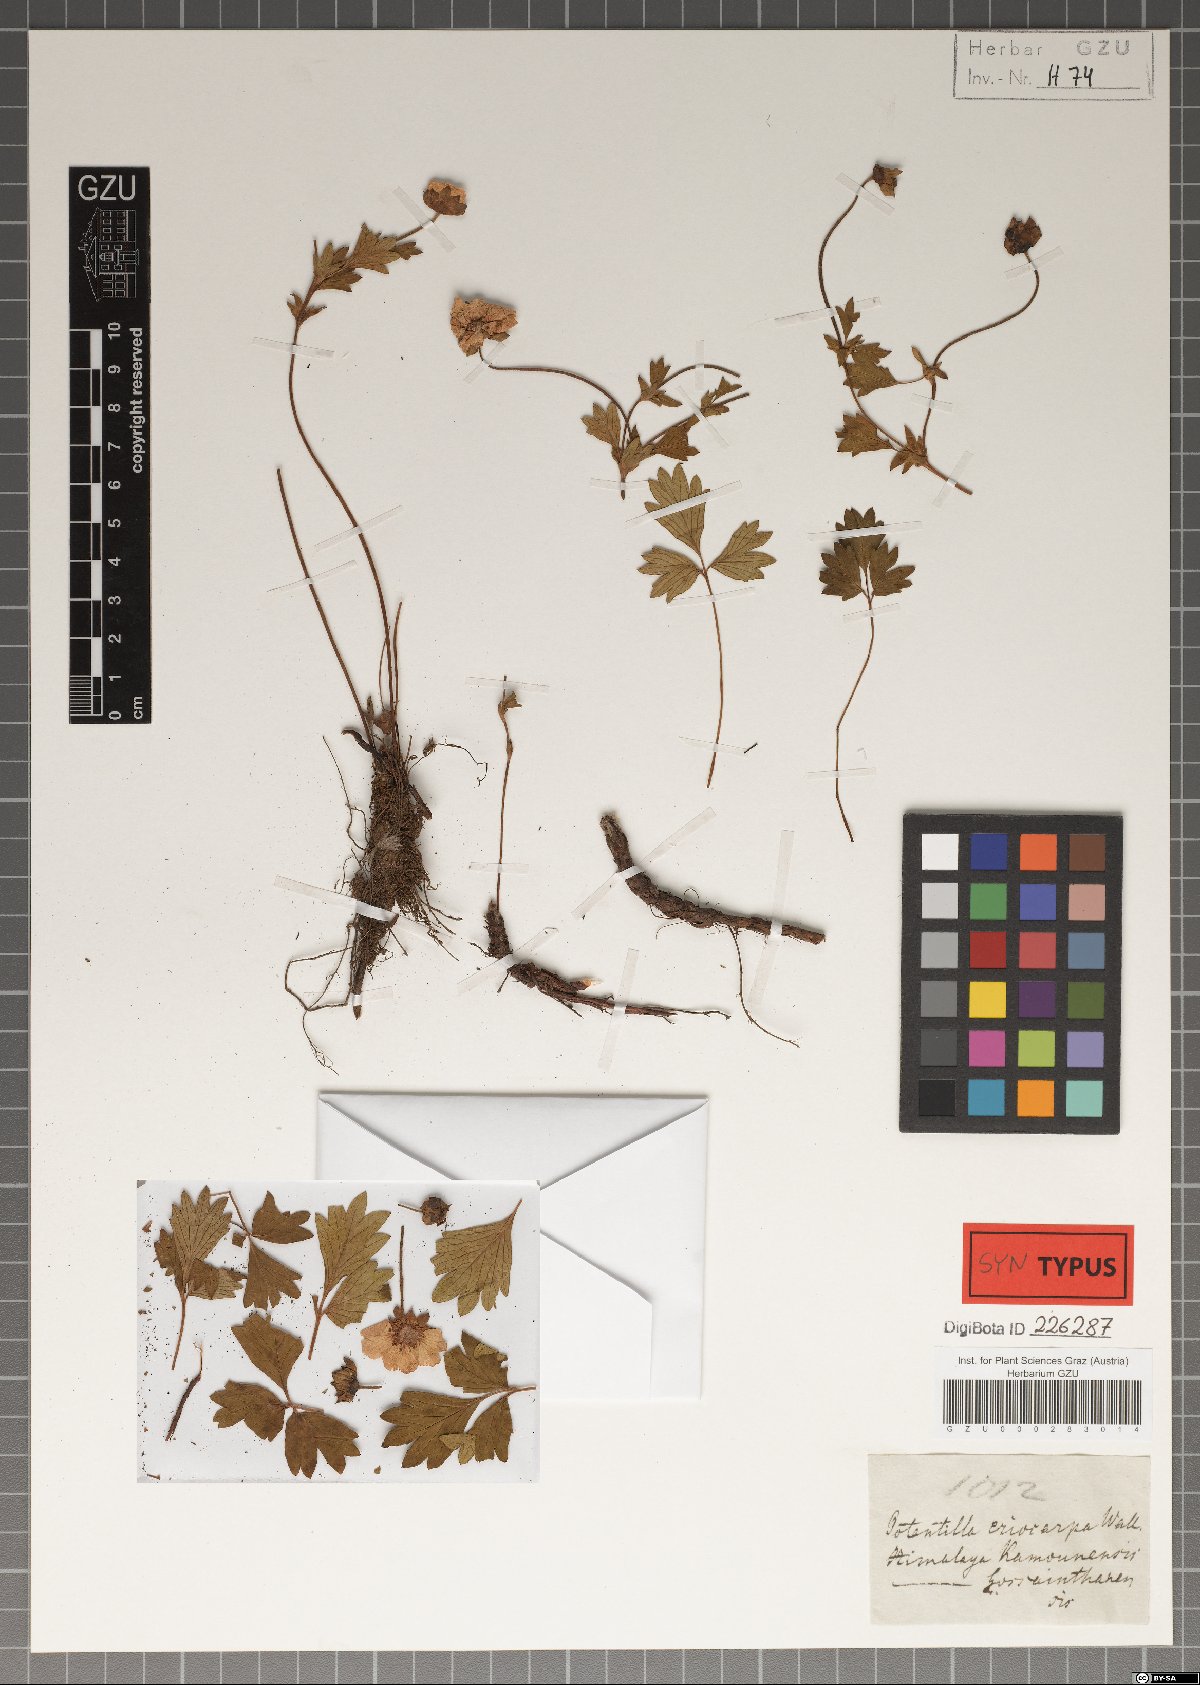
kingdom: Plantae
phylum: Tracheophyta
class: Magnoliopsida
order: Rosales
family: Rosaceae
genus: Potentilla
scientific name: Potentilla eriocarpa
